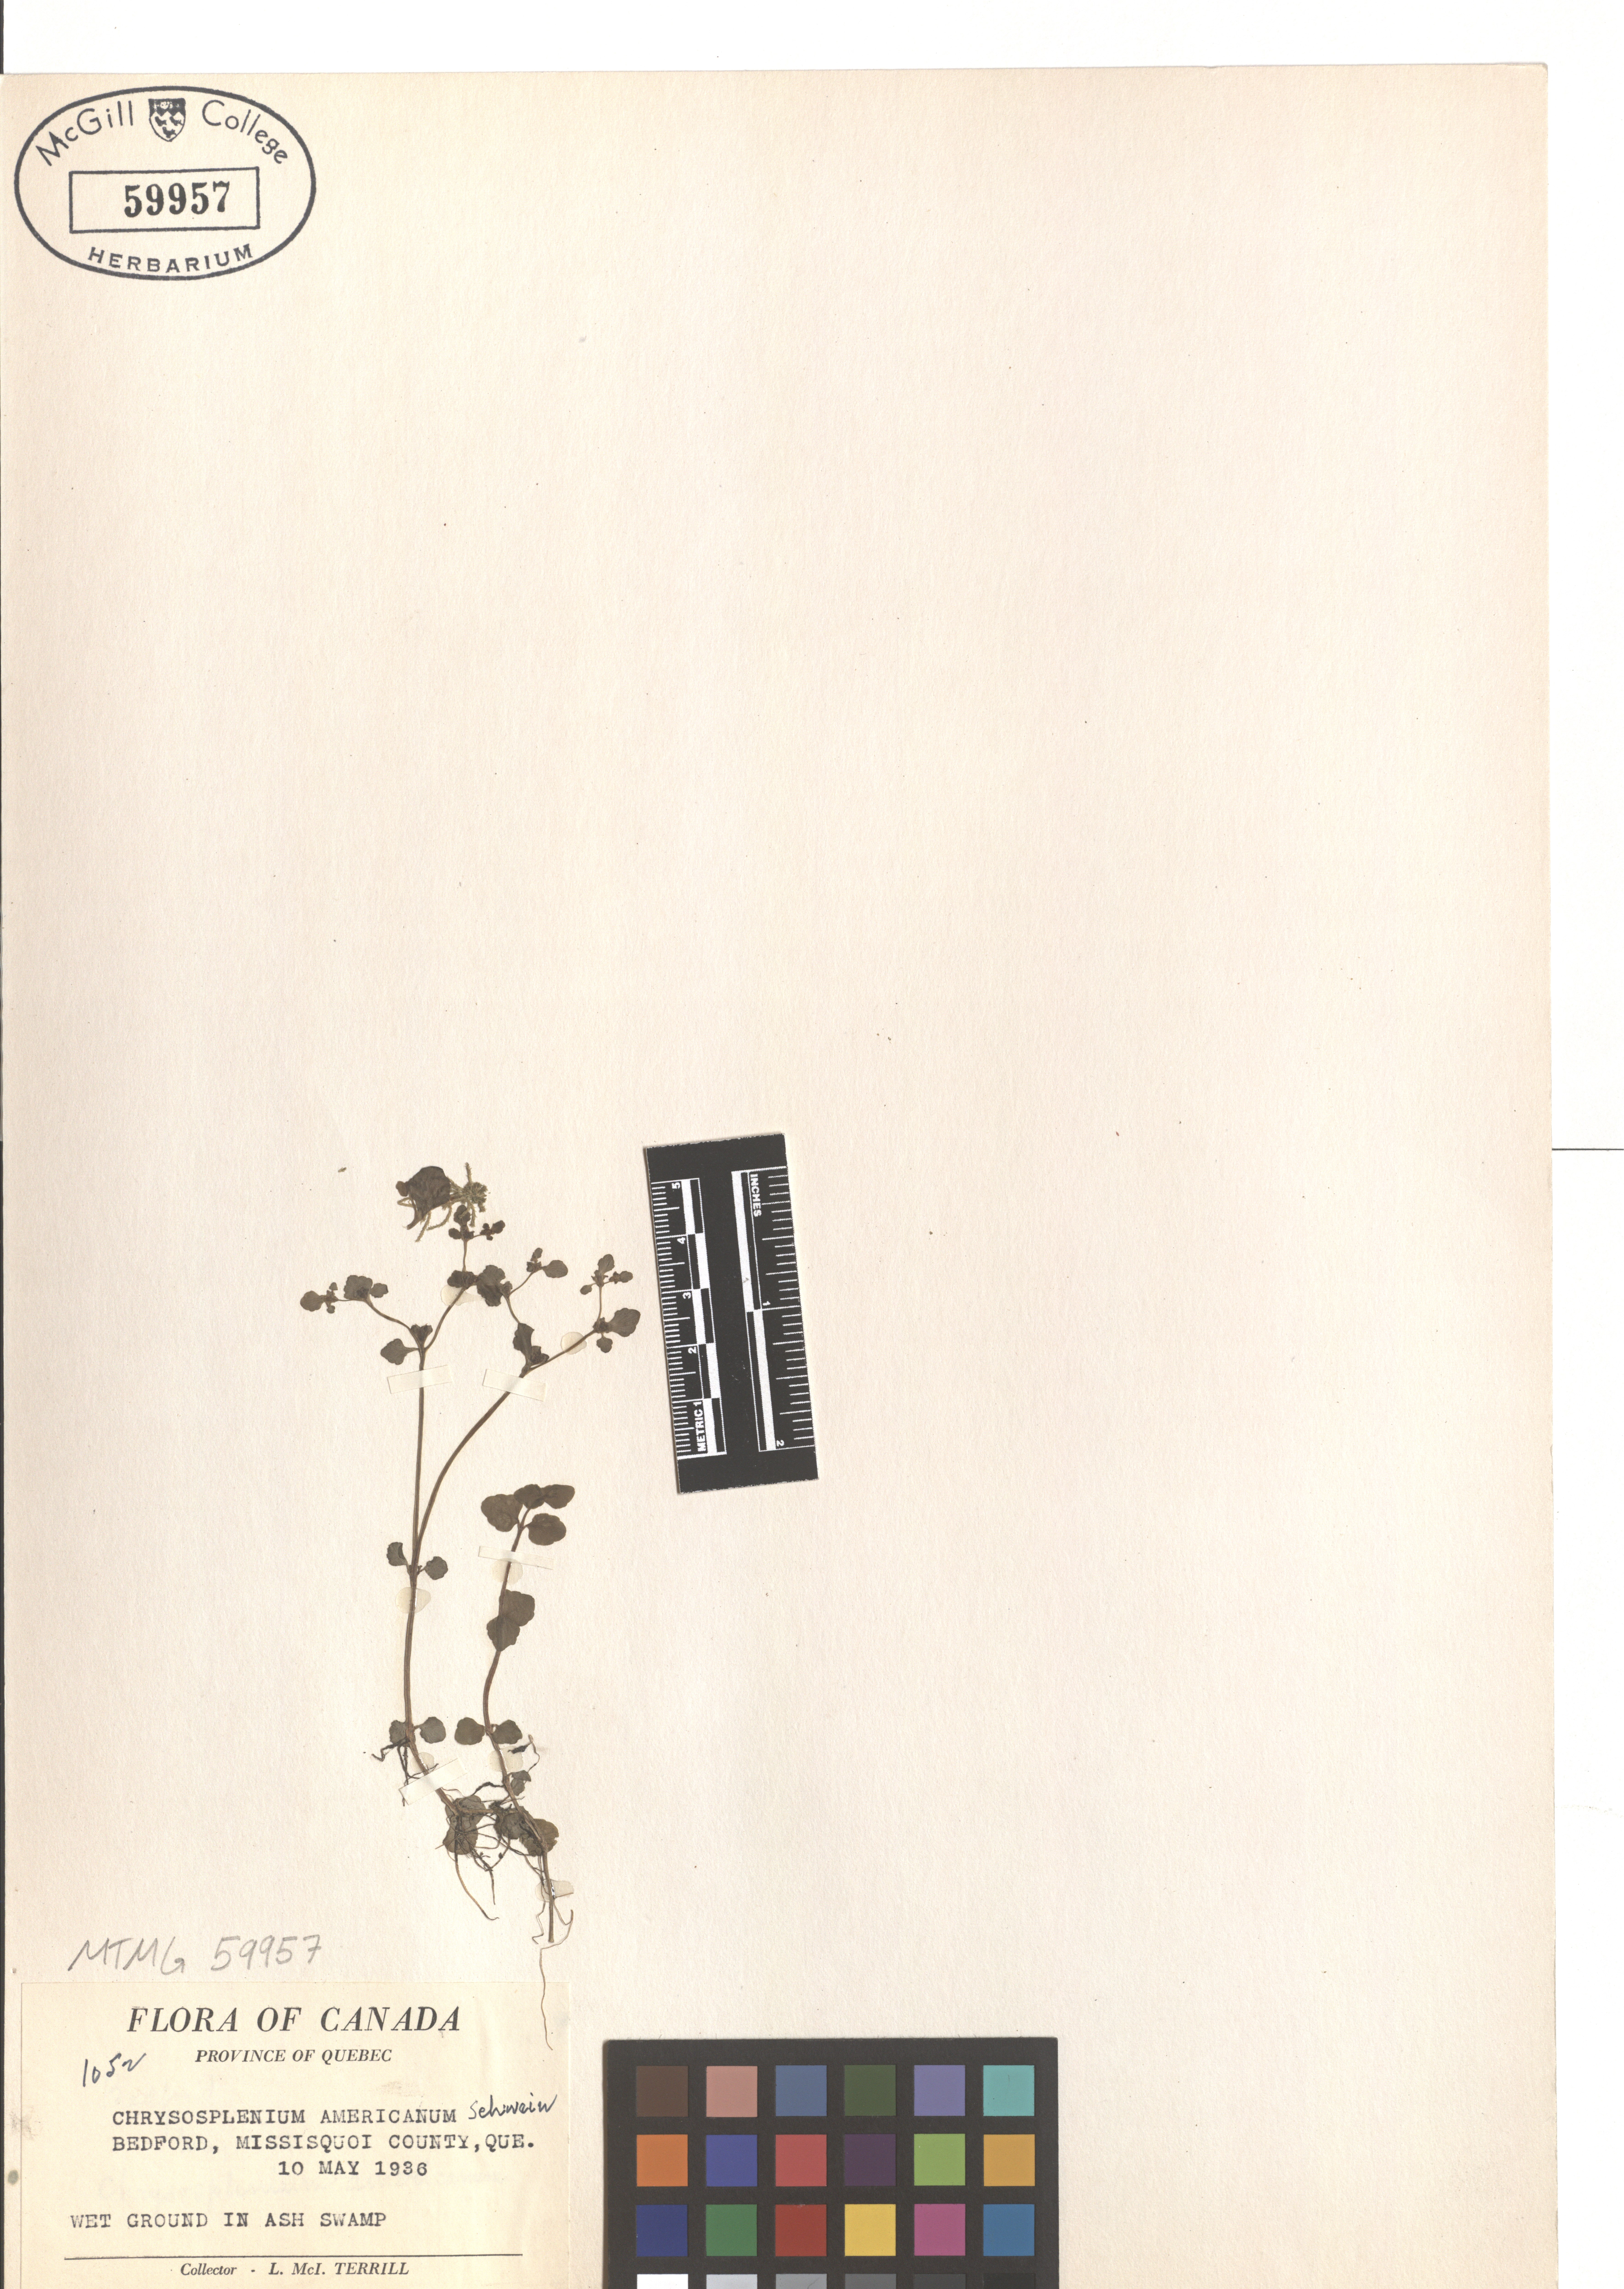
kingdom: Plantae
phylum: Tracheophyta
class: Magnoliopsida
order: Saxifragales
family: Saxifragaceae
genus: Chrysosplenium
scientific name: Chrysosplenium americanum
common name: American golden-saxifrage
